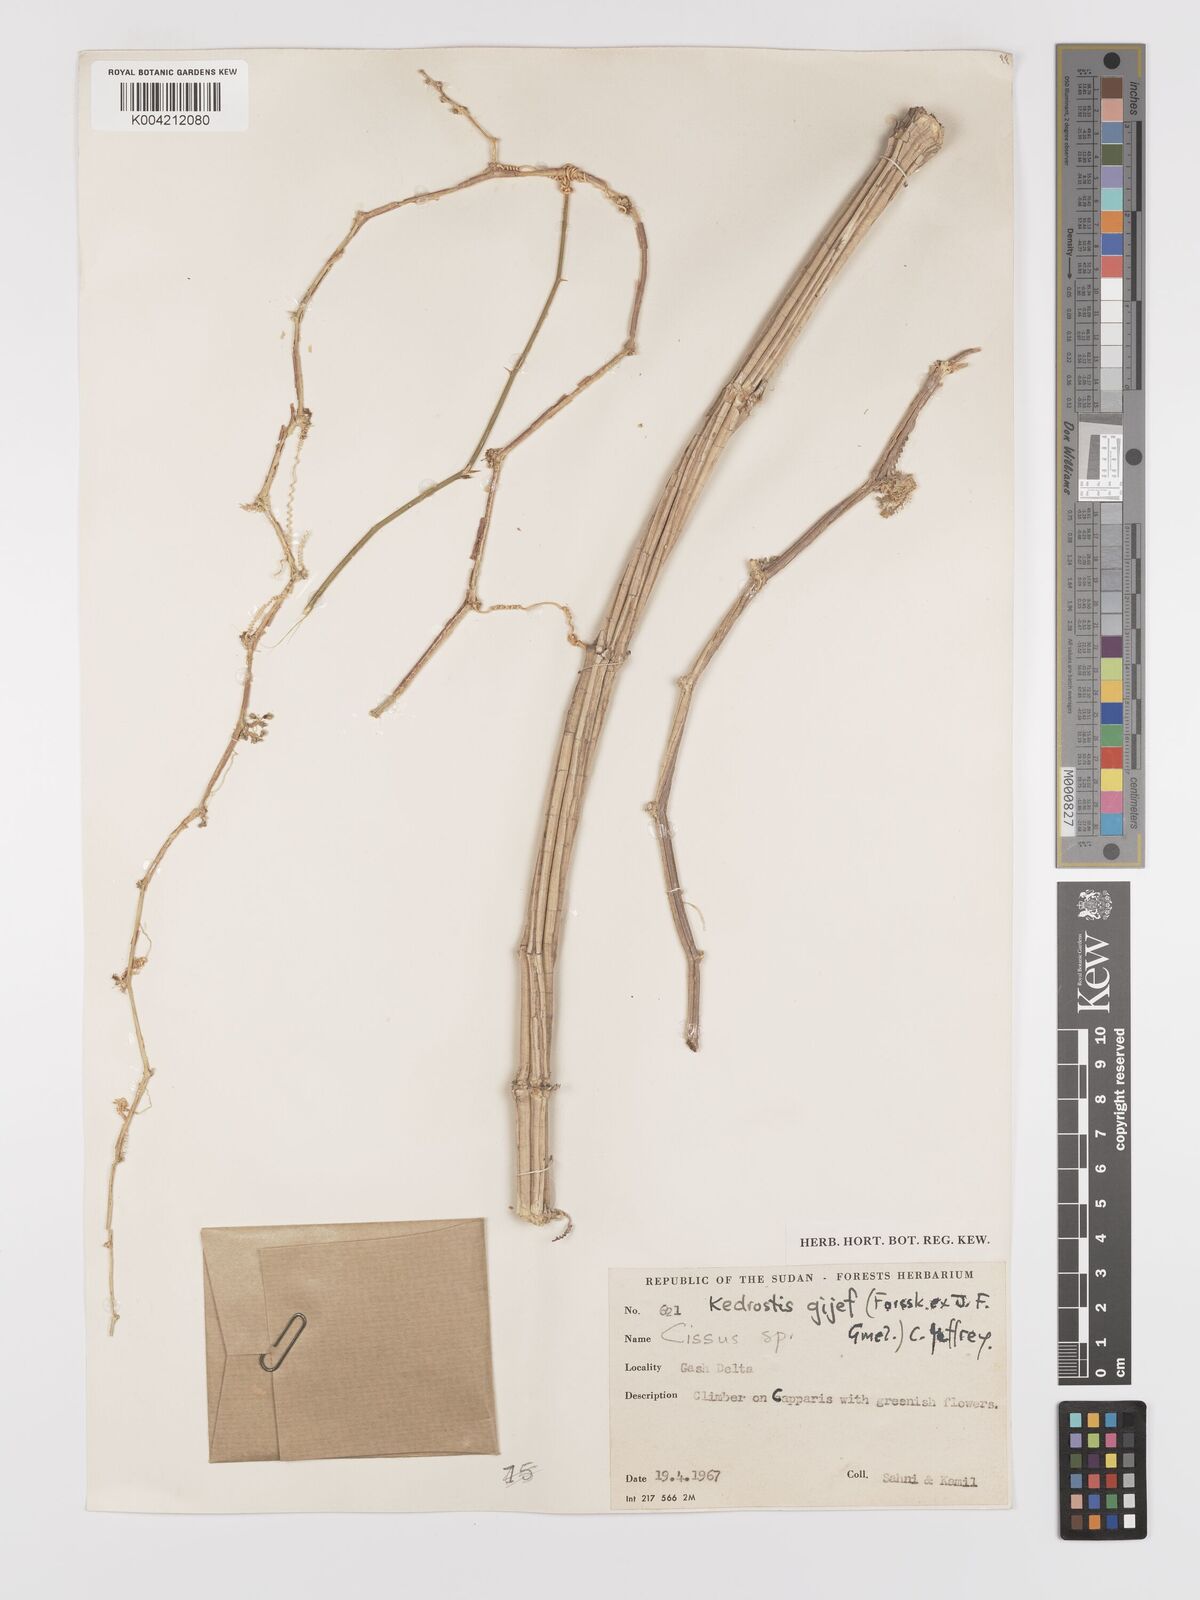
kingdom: Plantae
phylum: Tracheophyta
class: Magnoliopsida
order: Cucurbitales
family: Cucurbitaceae
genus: Kedrostis
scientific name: Kedrostis gijef
